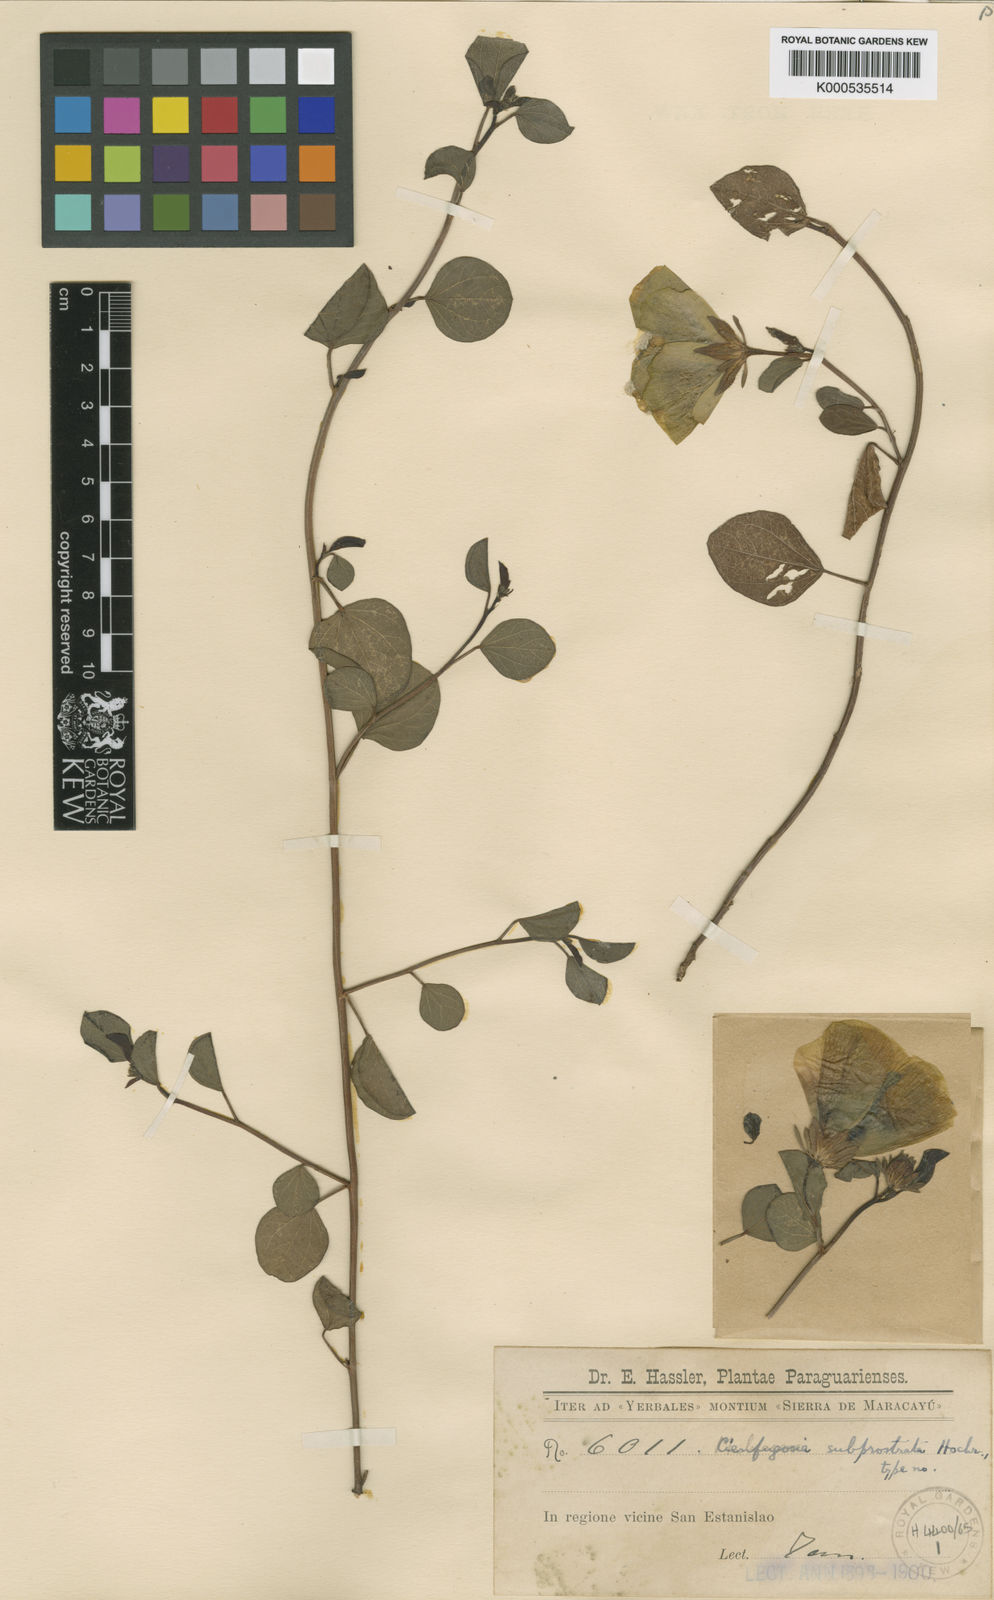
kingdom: Plantae
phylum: Tracheophyta
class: Magnoliopsida
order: Malvales
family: Malvaceae
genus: Cienfuegosia
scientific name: Cienfuegosia
